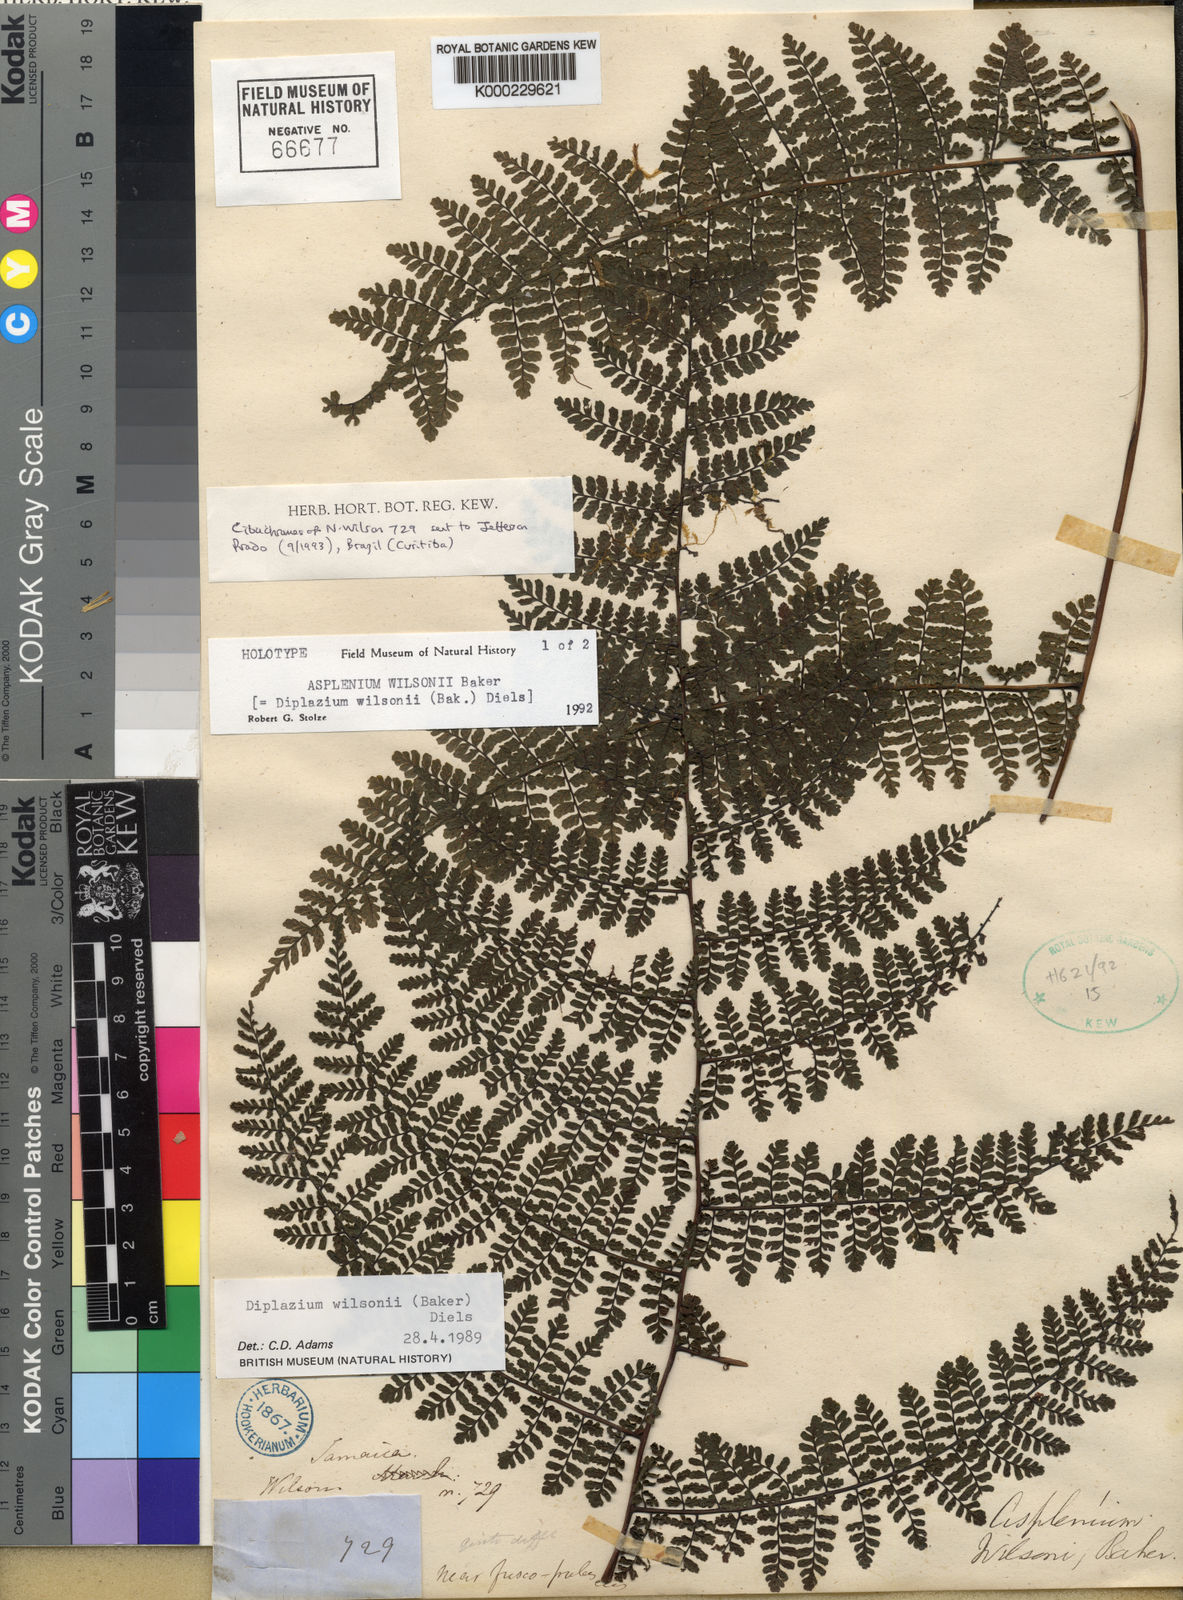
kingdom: Plantae
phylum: Tracheophyta
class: Polypodiopsida
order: Polypodiales
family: Athyriaceae
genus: Diplazium
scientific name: Diplazium wilsonii
